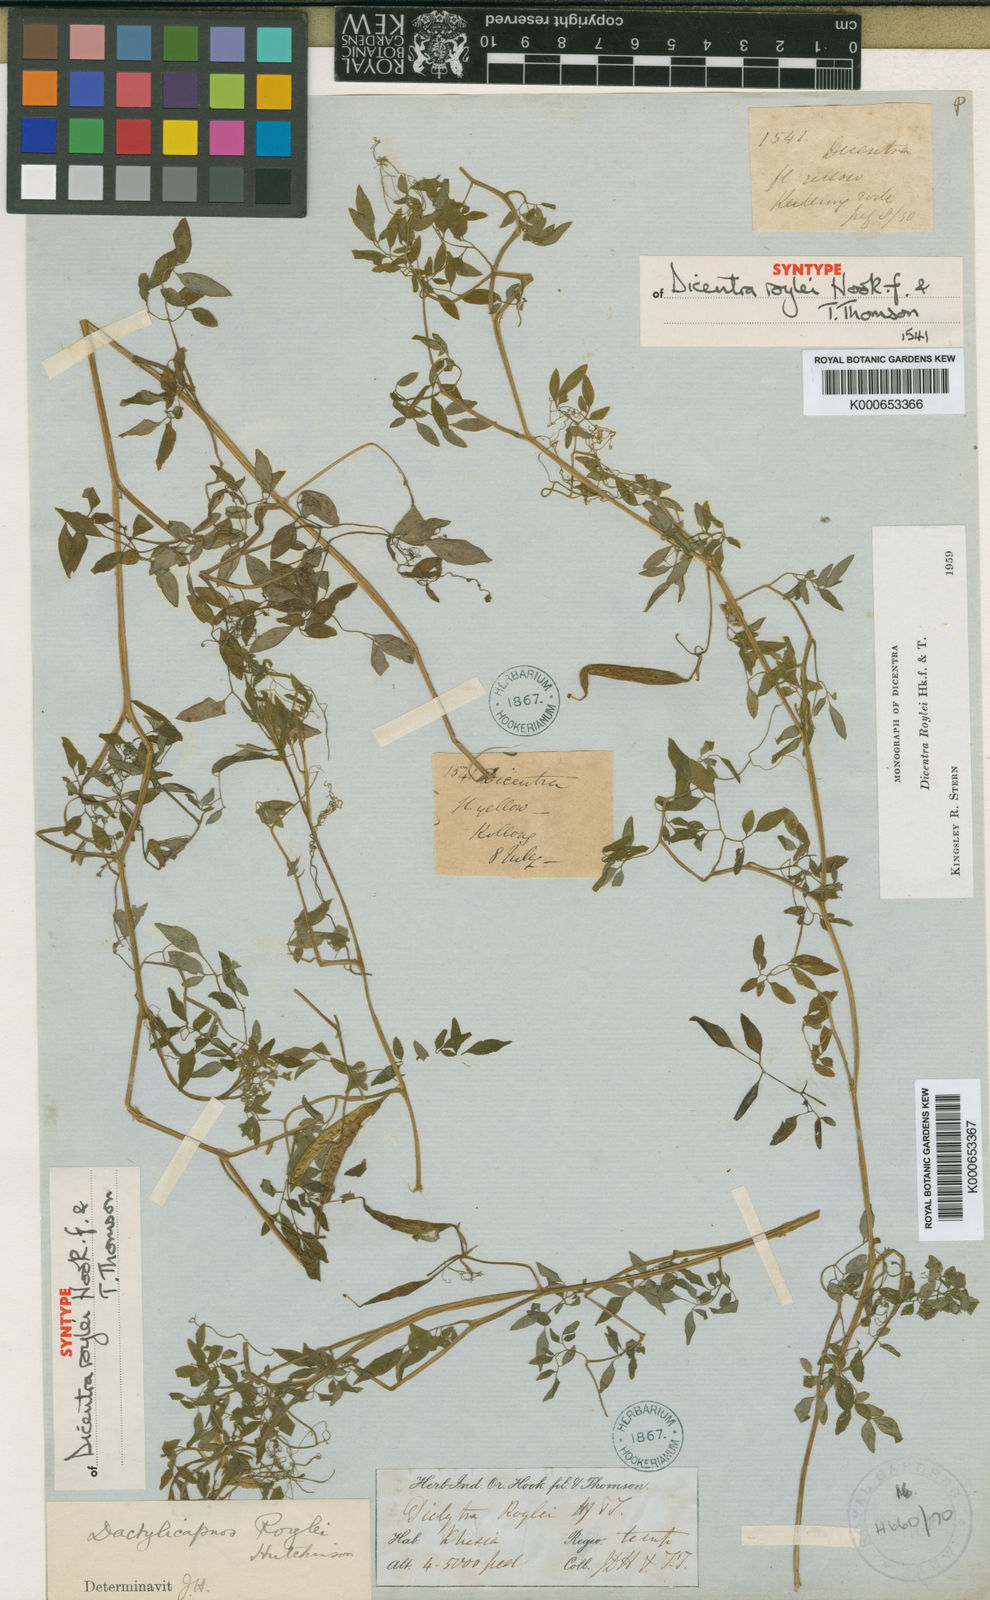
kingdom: Plantae
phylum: Tracheophyta
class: Magnoliopsida
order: Ranunculales
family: Papaveraceae
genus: Dactylicapnos
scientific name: Dactylicapnos roylei
